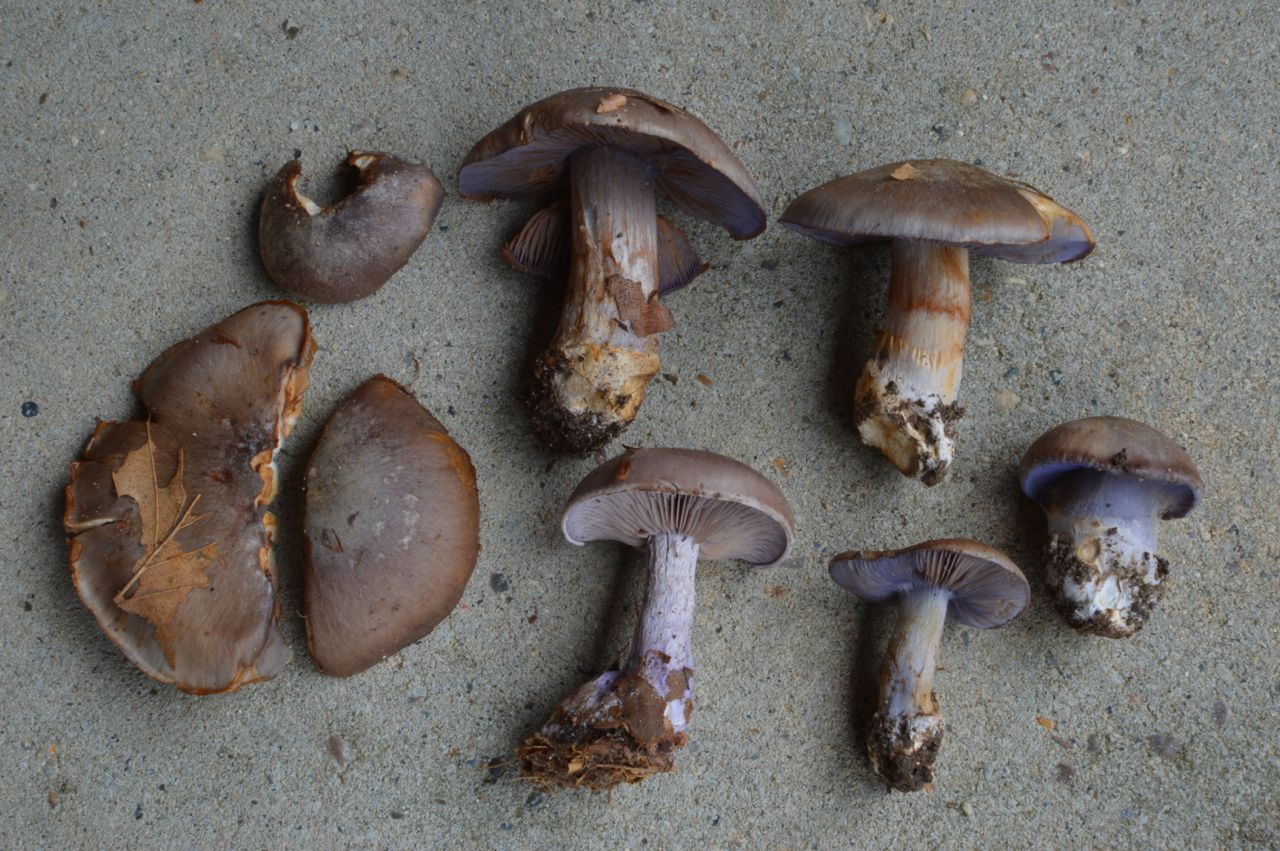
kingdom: Fungi
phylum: Basidiomycota
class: Agaricomycetes
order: Agaricales
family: Cortinariaceae
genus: Phlegmacium
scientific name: Phlegmacium viridocoeruleum
